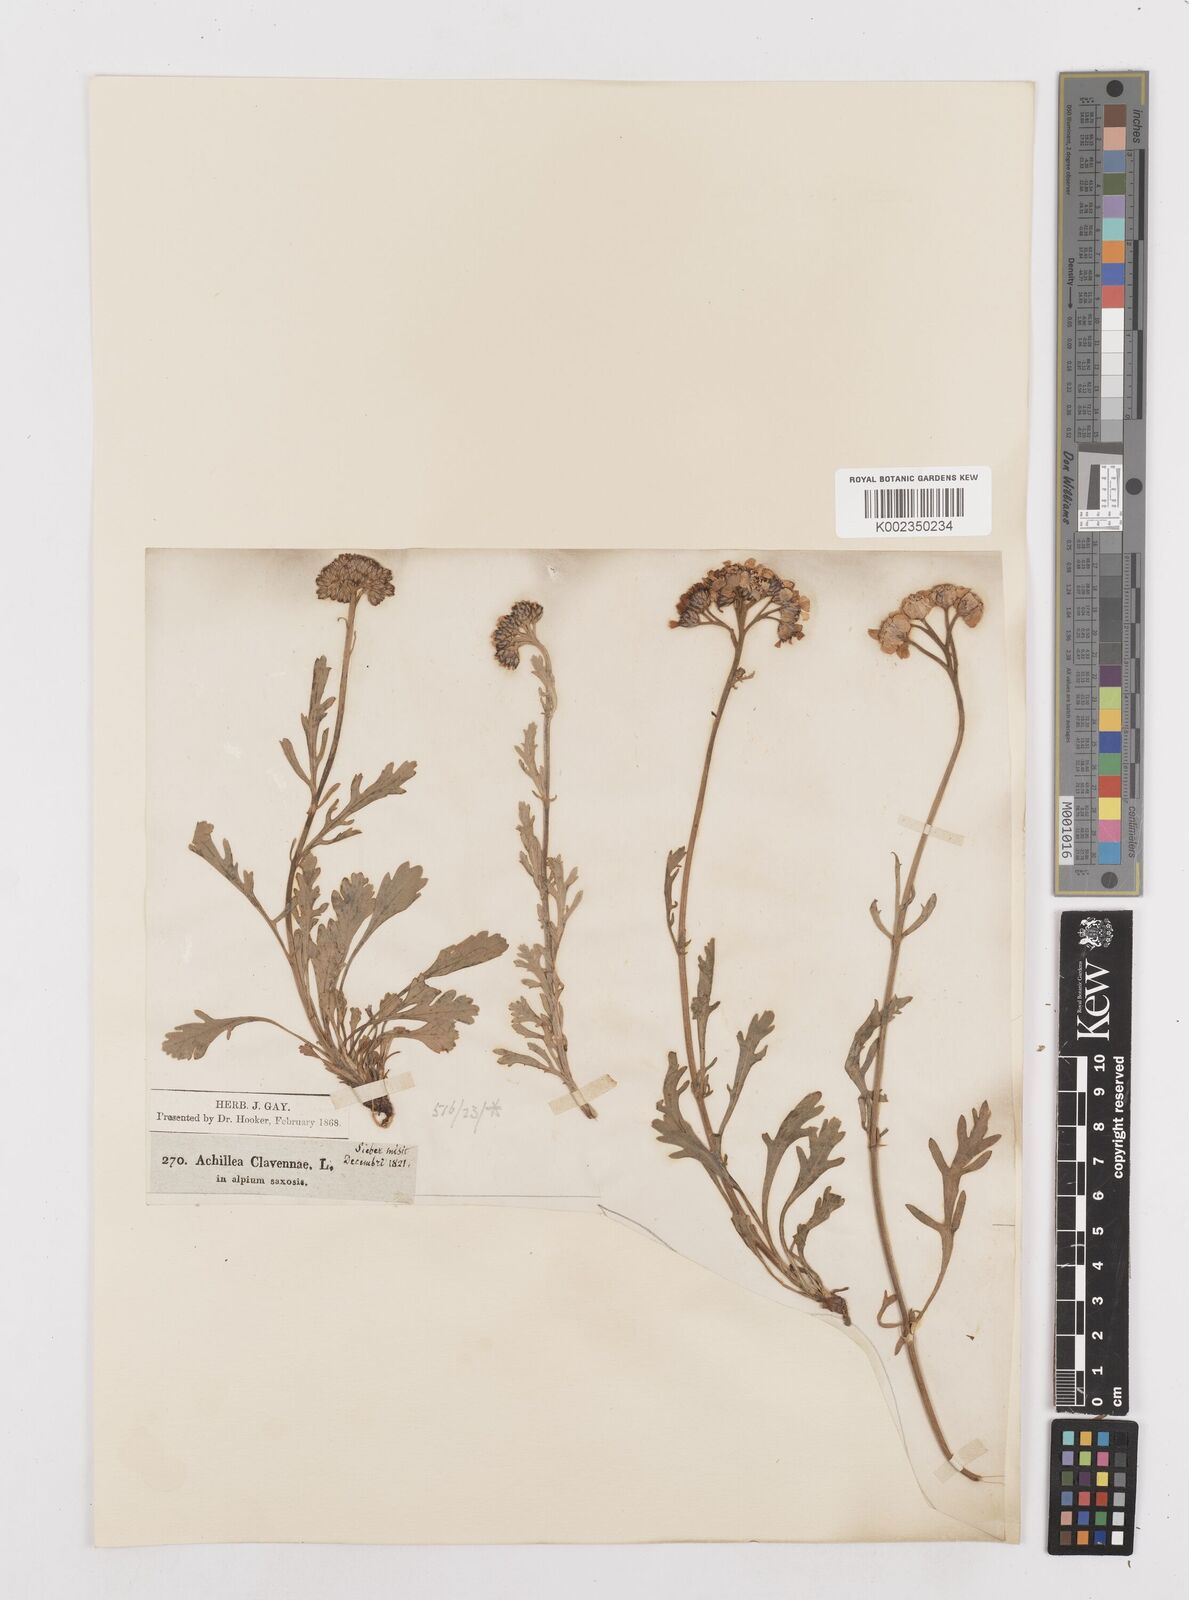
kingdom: Plantae
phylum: Tracheophyta
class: Magnoliopsida
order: Asterales
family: Asteraceae
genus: Achillea
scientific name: Achillea clavennae
